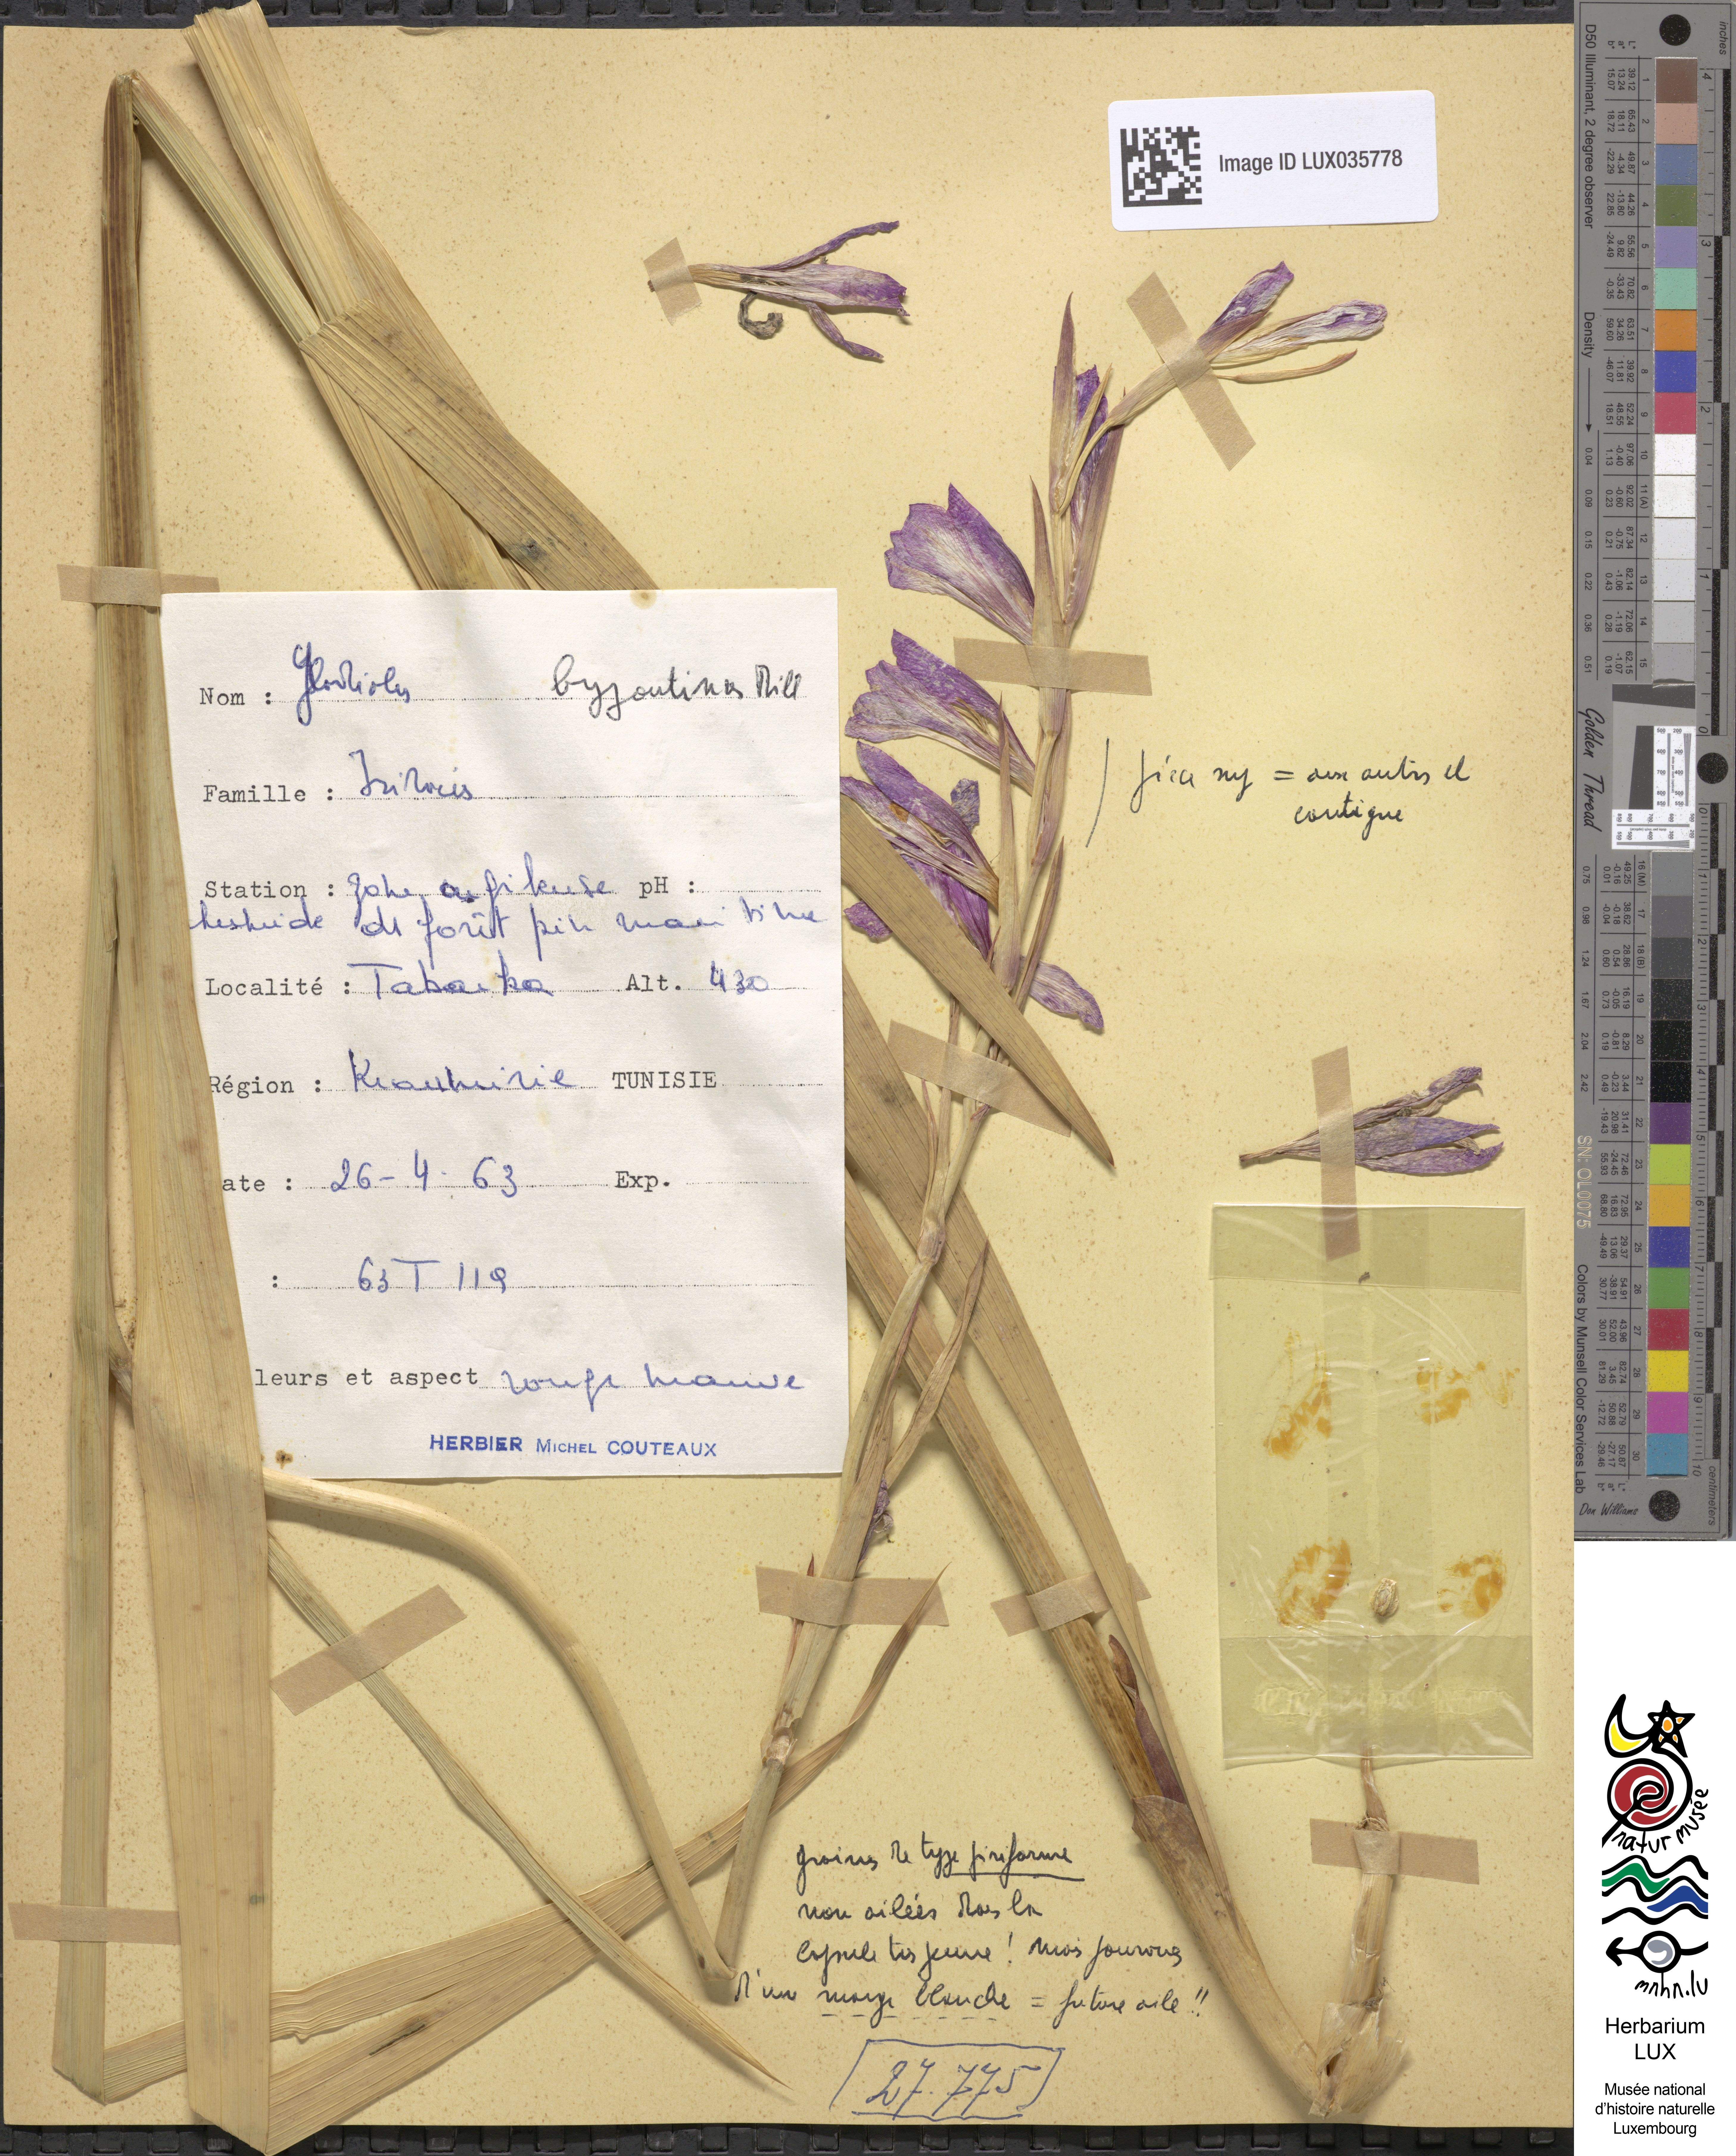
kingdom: Plantae
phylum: Tracheophyta
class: Liliopsida
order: Asparagales
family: Iridaceae
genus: Gladiolus
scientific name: Gladiolus byzantinus
